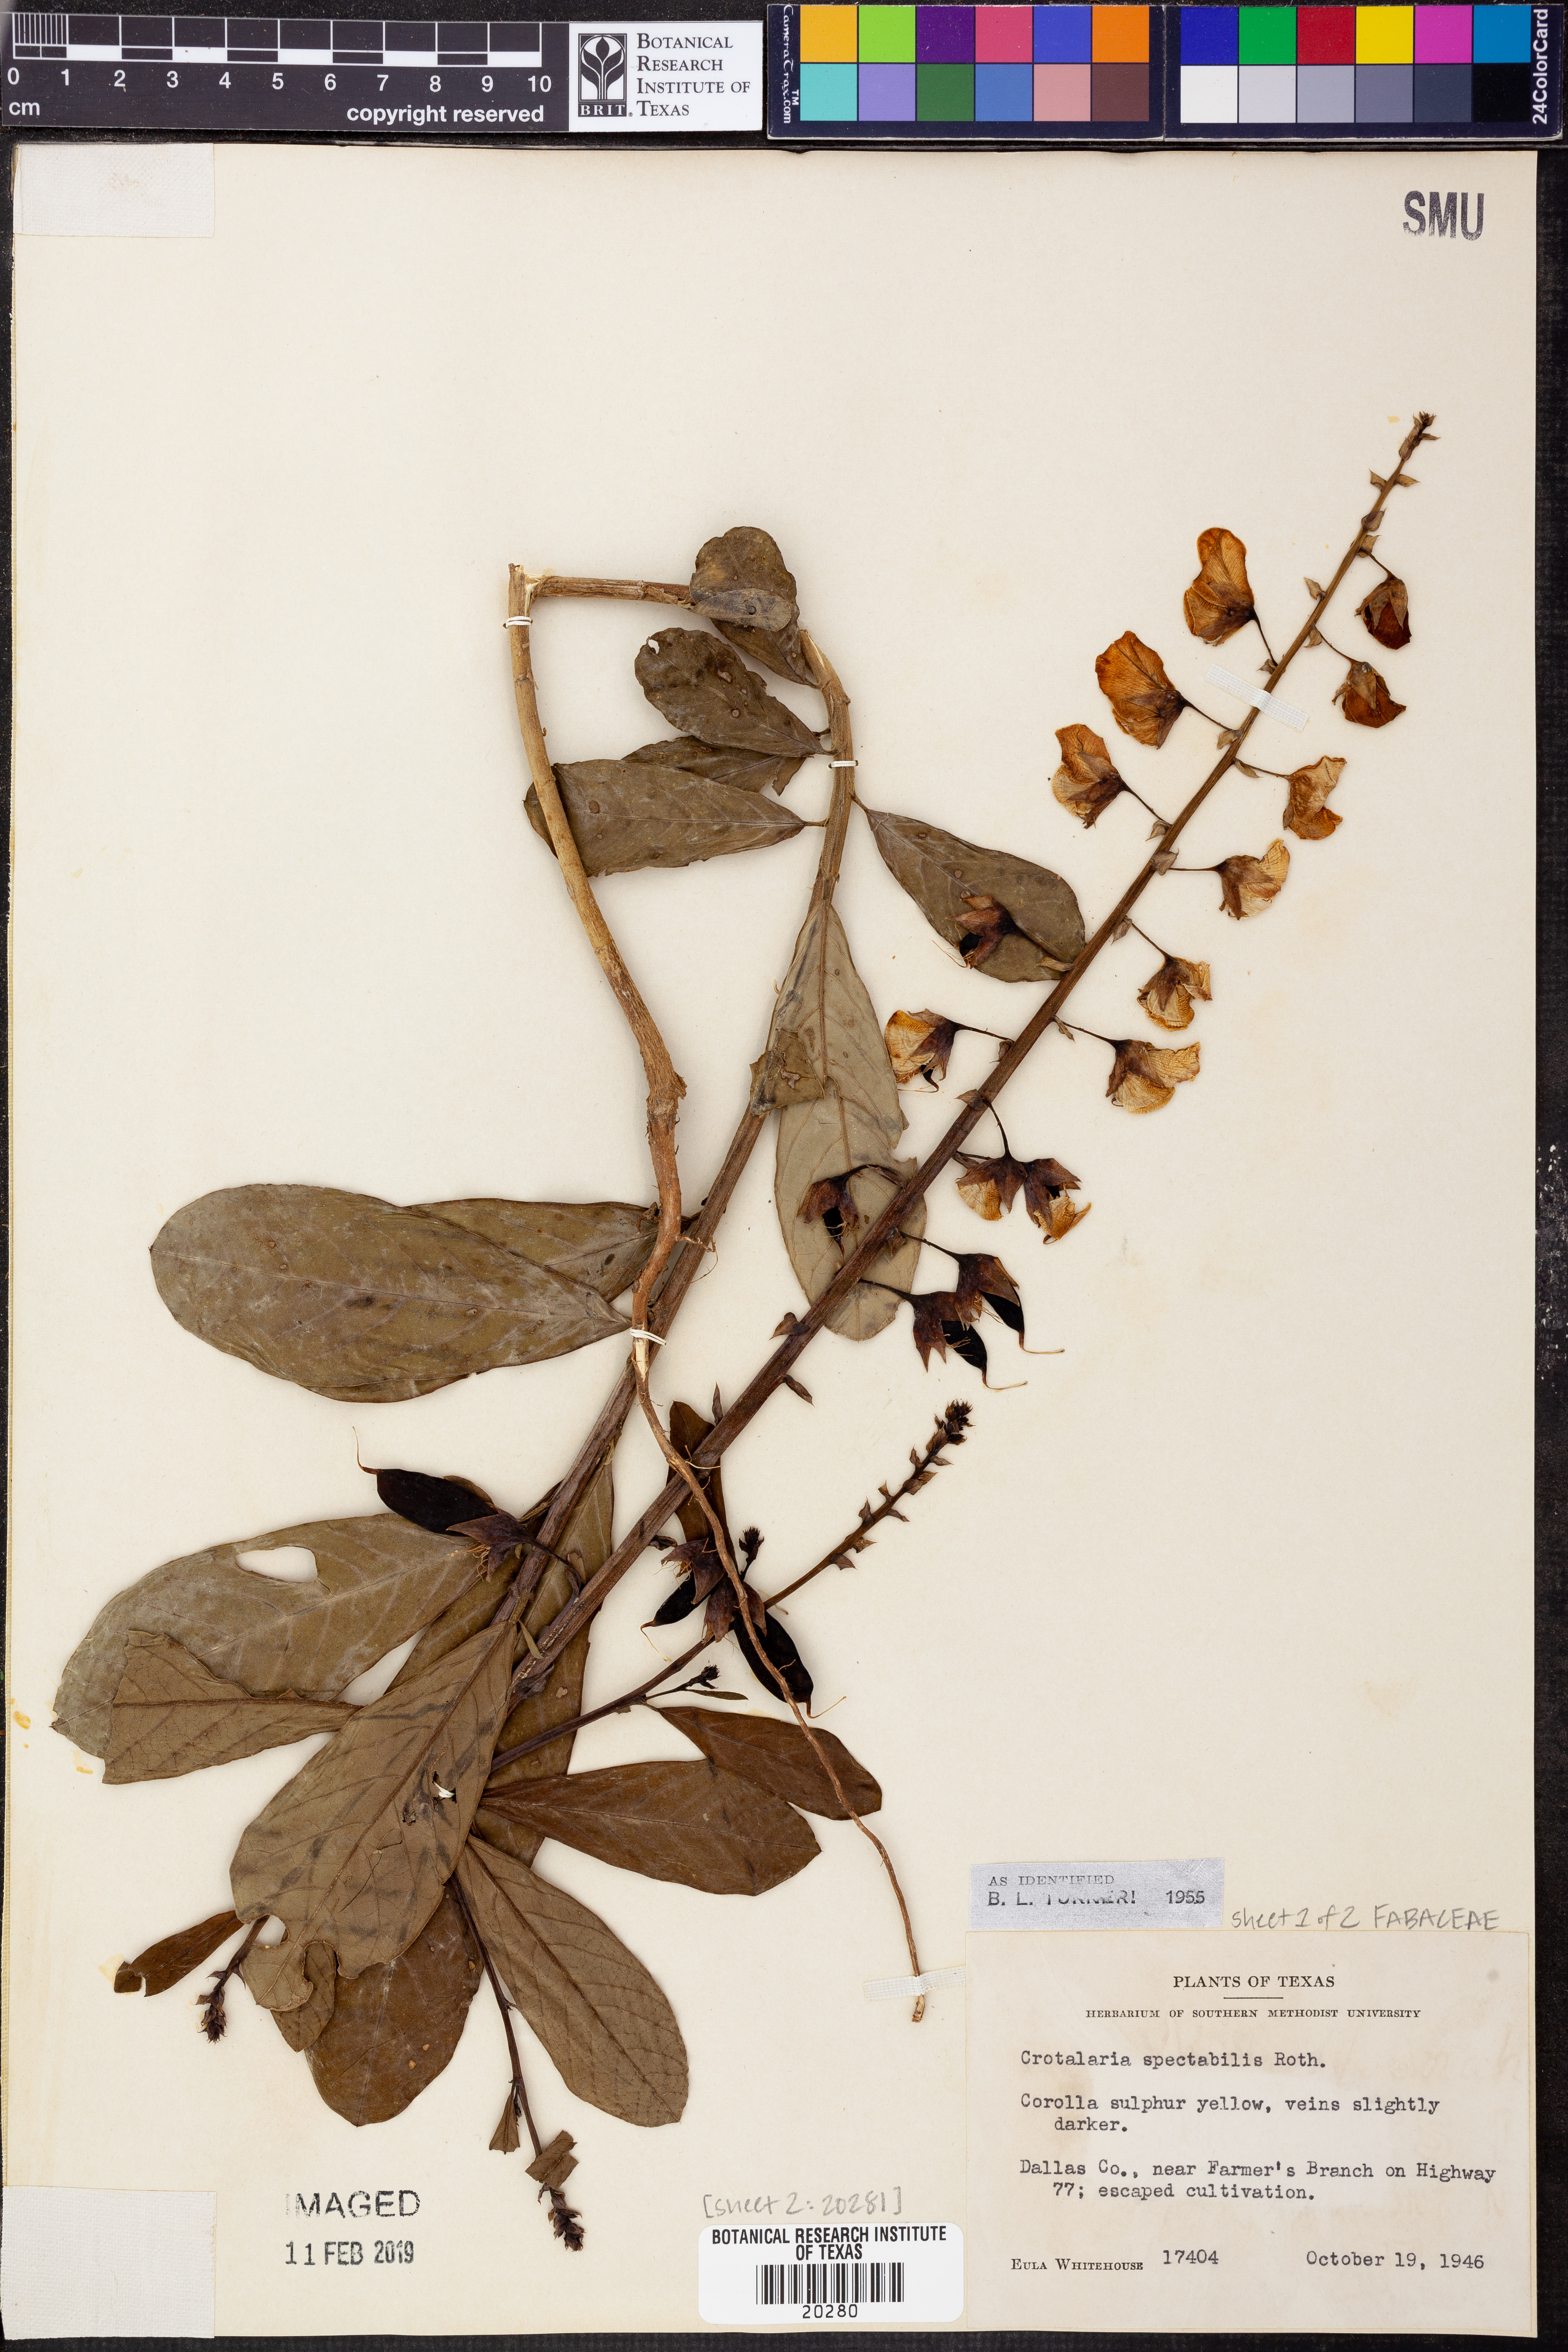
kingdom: Plantae
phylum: Tracheophyta
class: Magnoliopsida
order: Fabales
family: Fabaceae
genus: Crotalaria
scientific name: Crotalaria spectabilis
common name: Showy rattlebox
